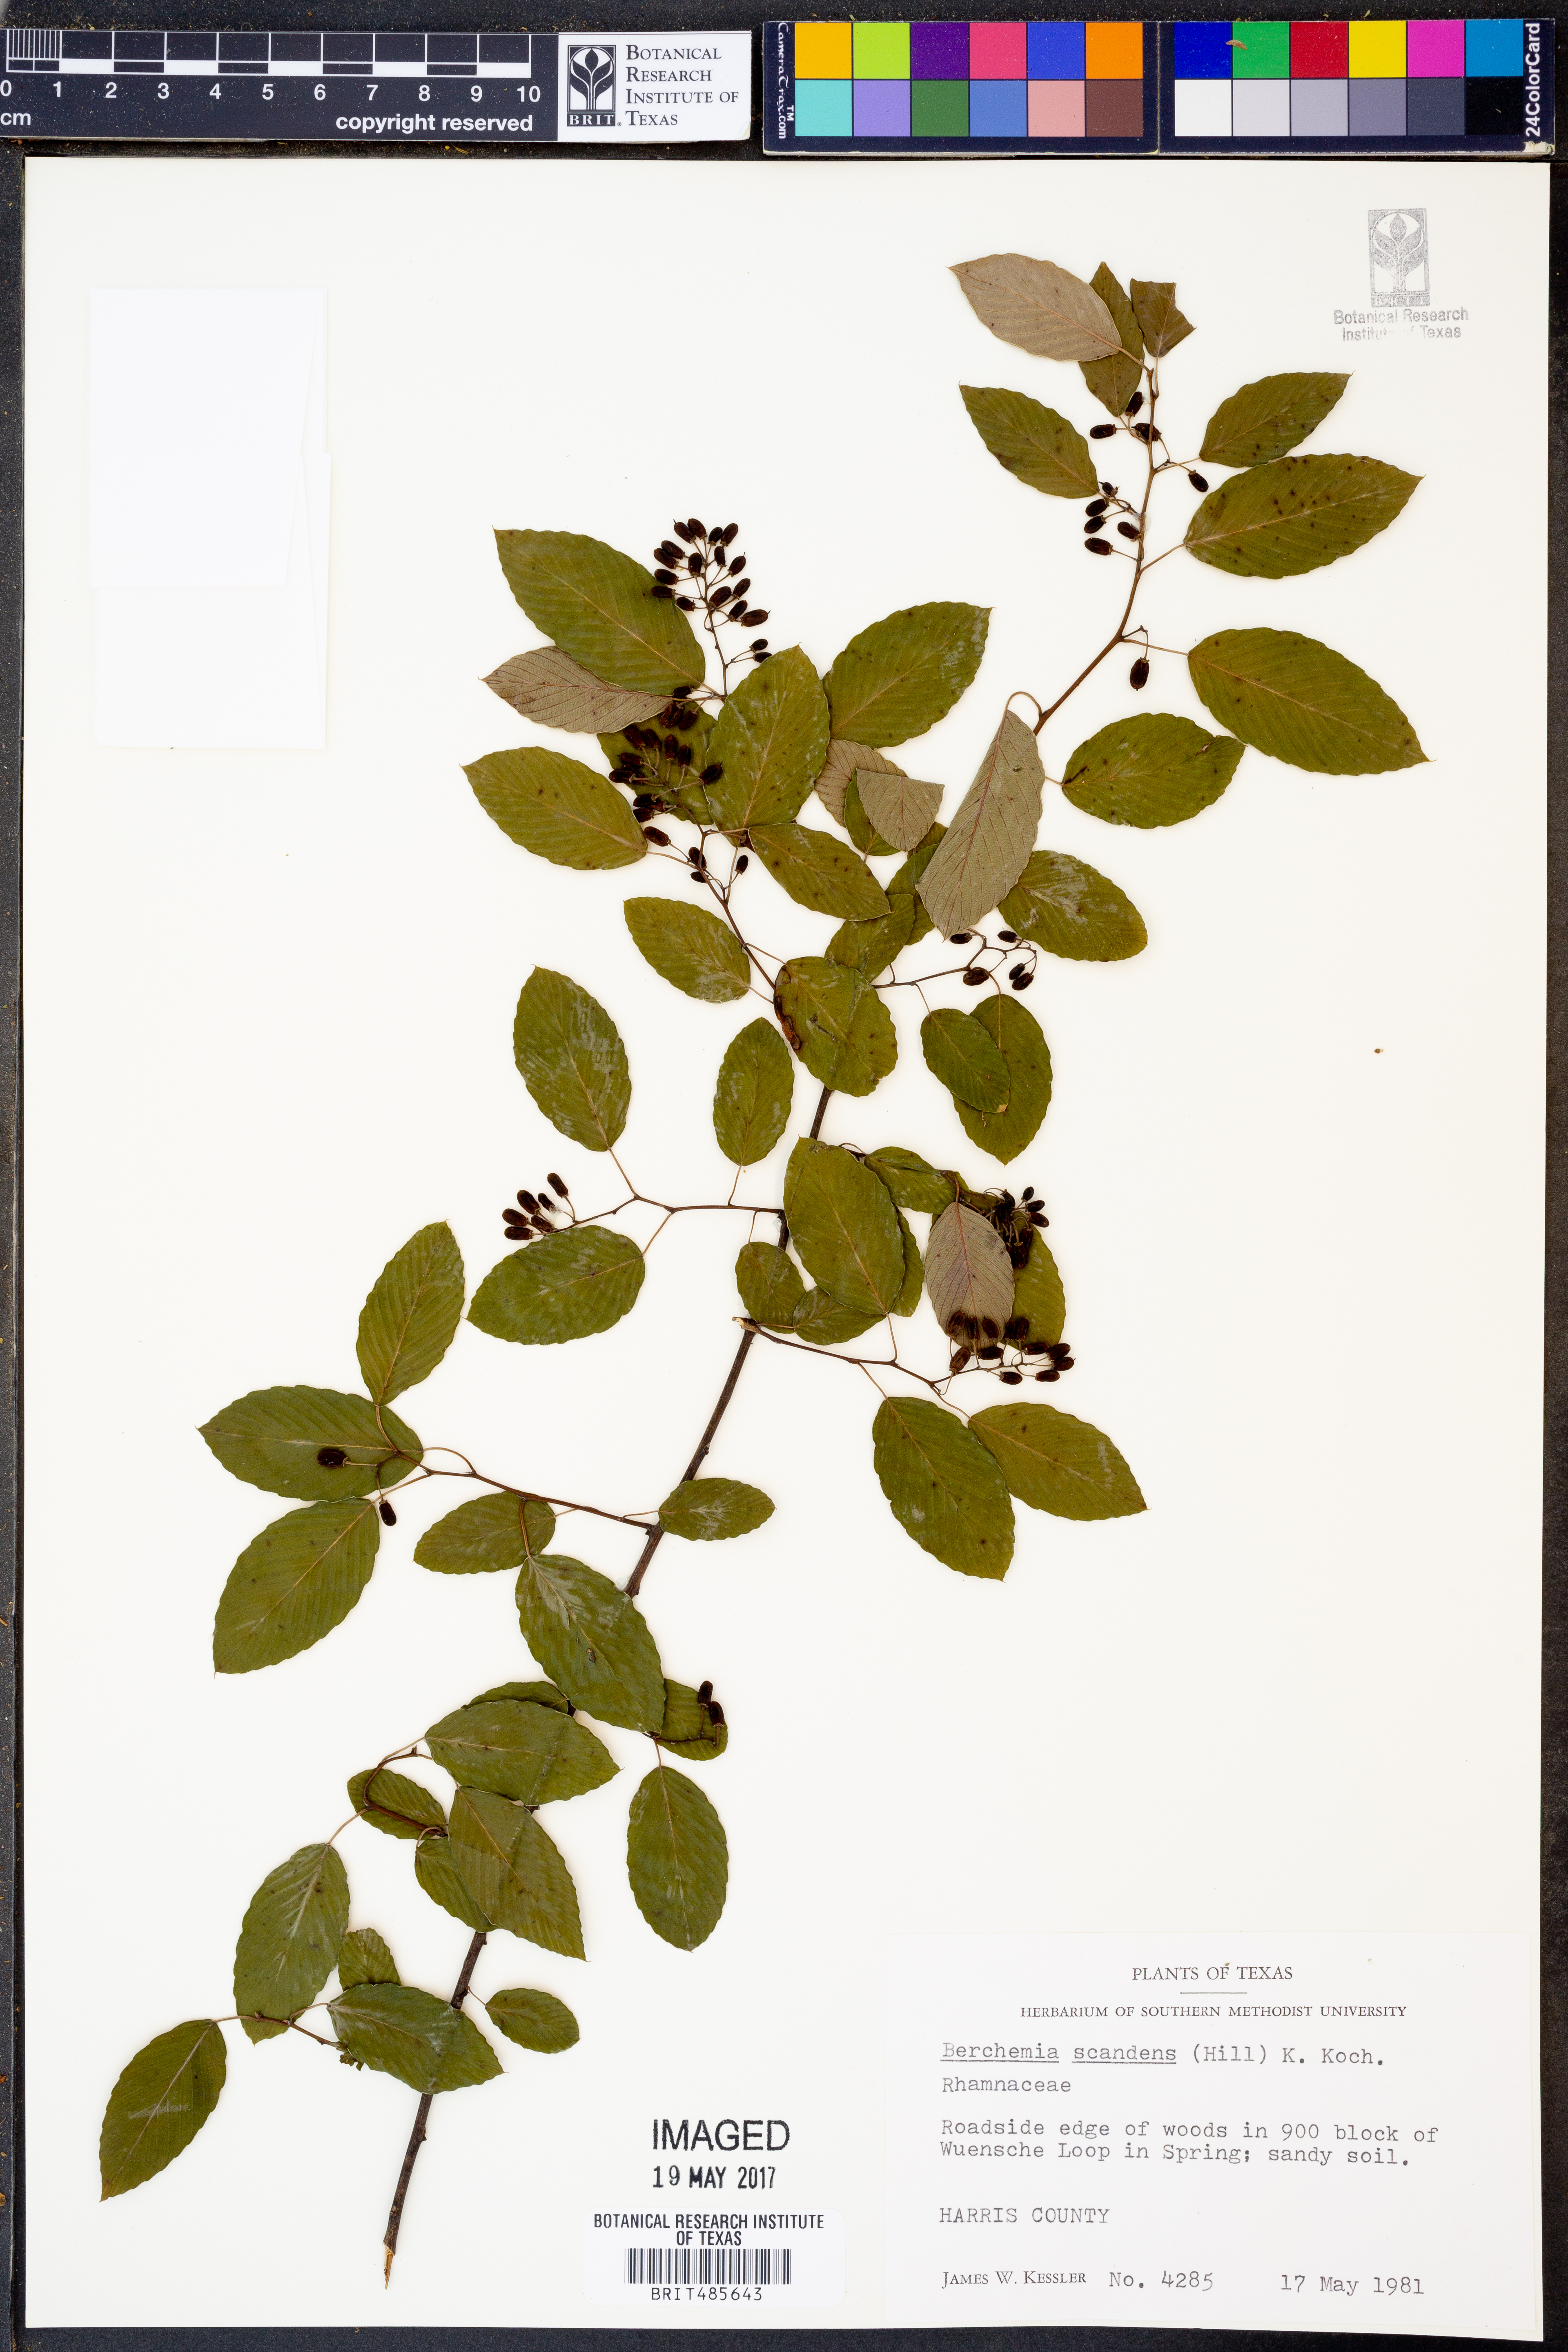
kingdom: Plantae
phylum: Tracheophyta
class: Magnoliopsida
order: Rosales
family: Rhamnaceae
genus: Berchemia
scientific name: Berchemia scandens
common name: Supplejack
